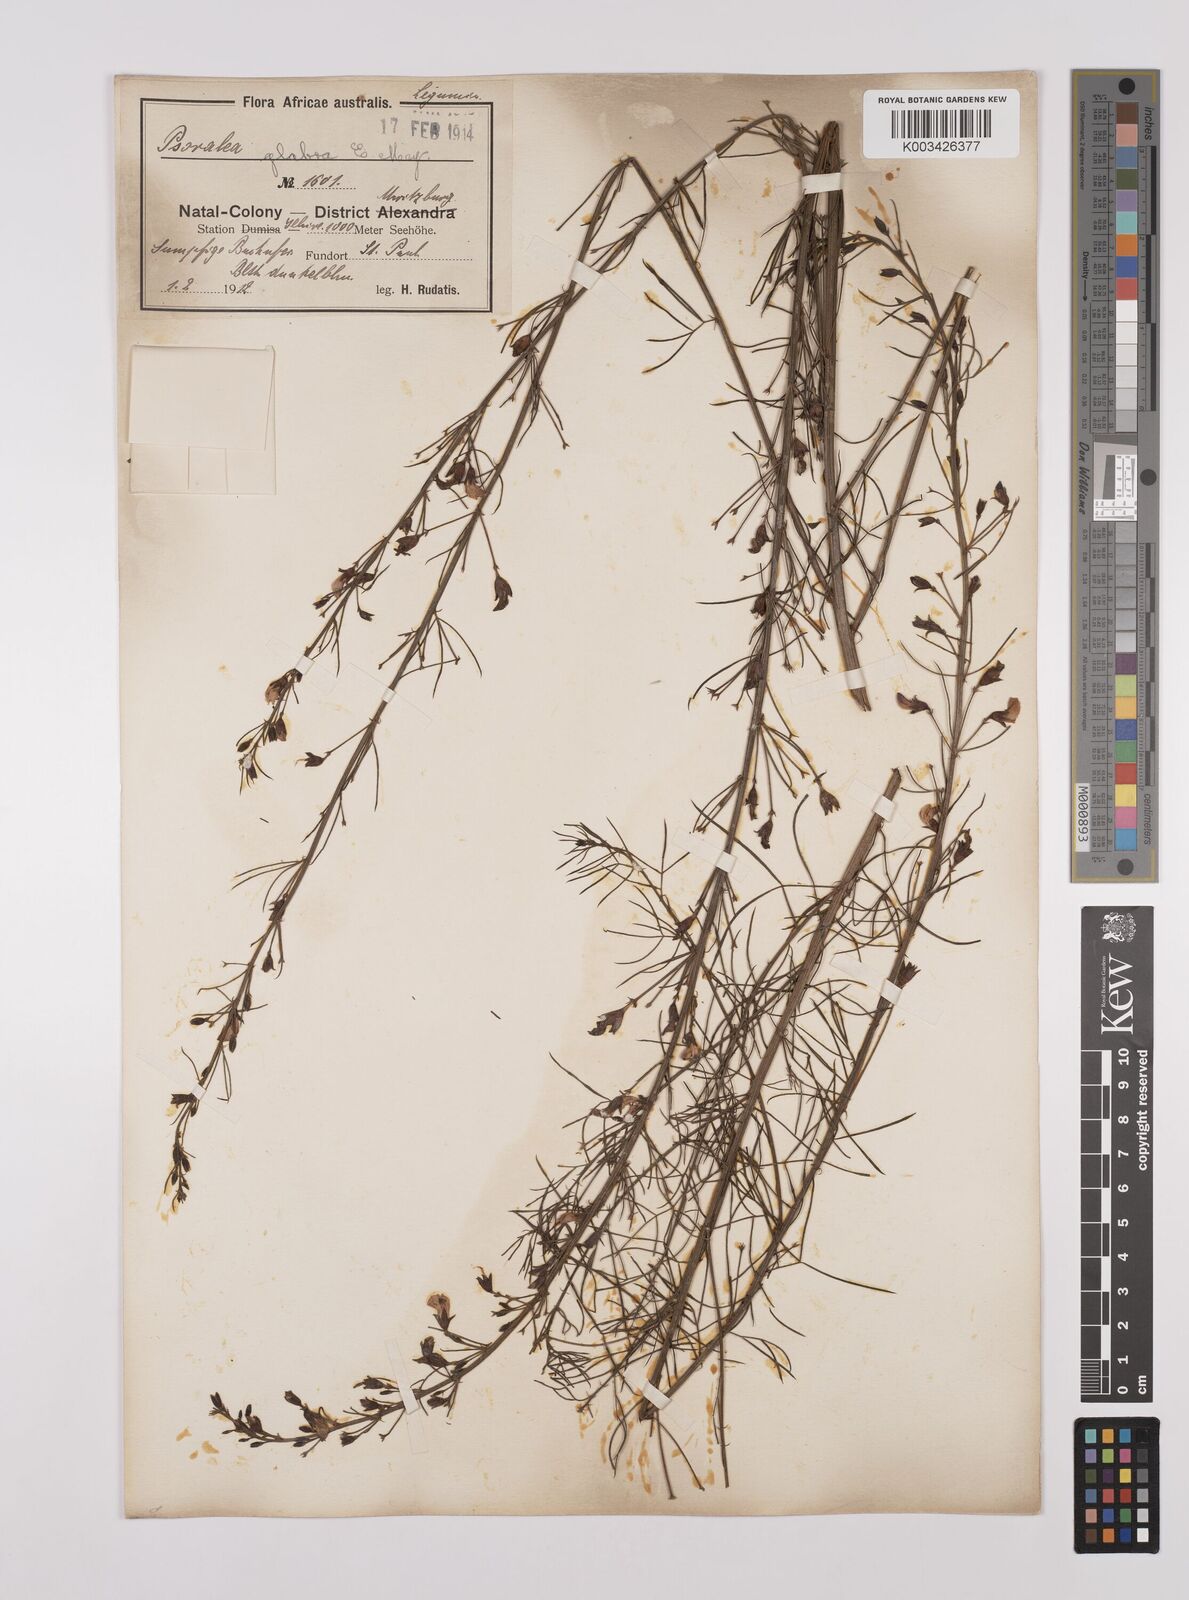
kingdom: Plantae
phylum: Tracheophyta
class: Magnoliopsida
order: Fabales
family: Fabaceae
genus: Psoralea
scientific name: Psoralea rhizotoma
